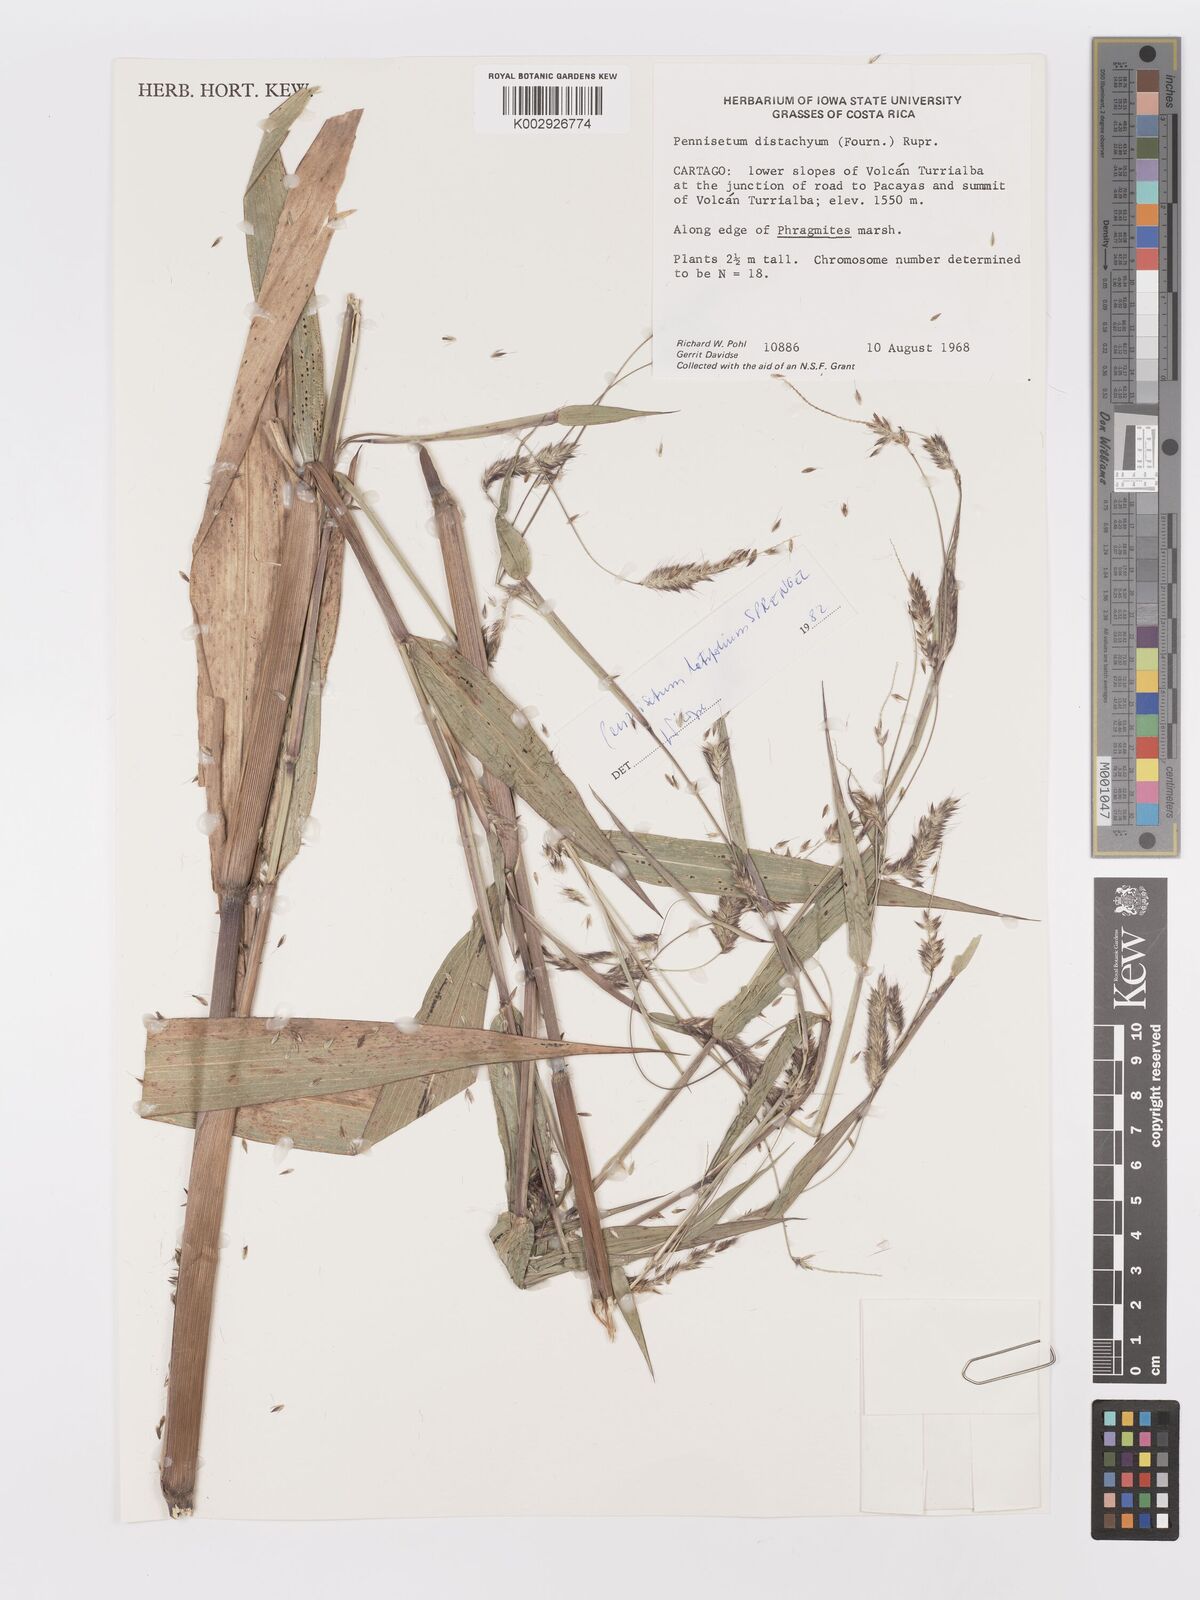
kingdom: Plantae
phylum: Tracheophyta
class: Liliopsida
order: Poales
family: Poaceae
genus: Cenchrus
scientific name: Cenchrus latifolius
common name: Sandbur
